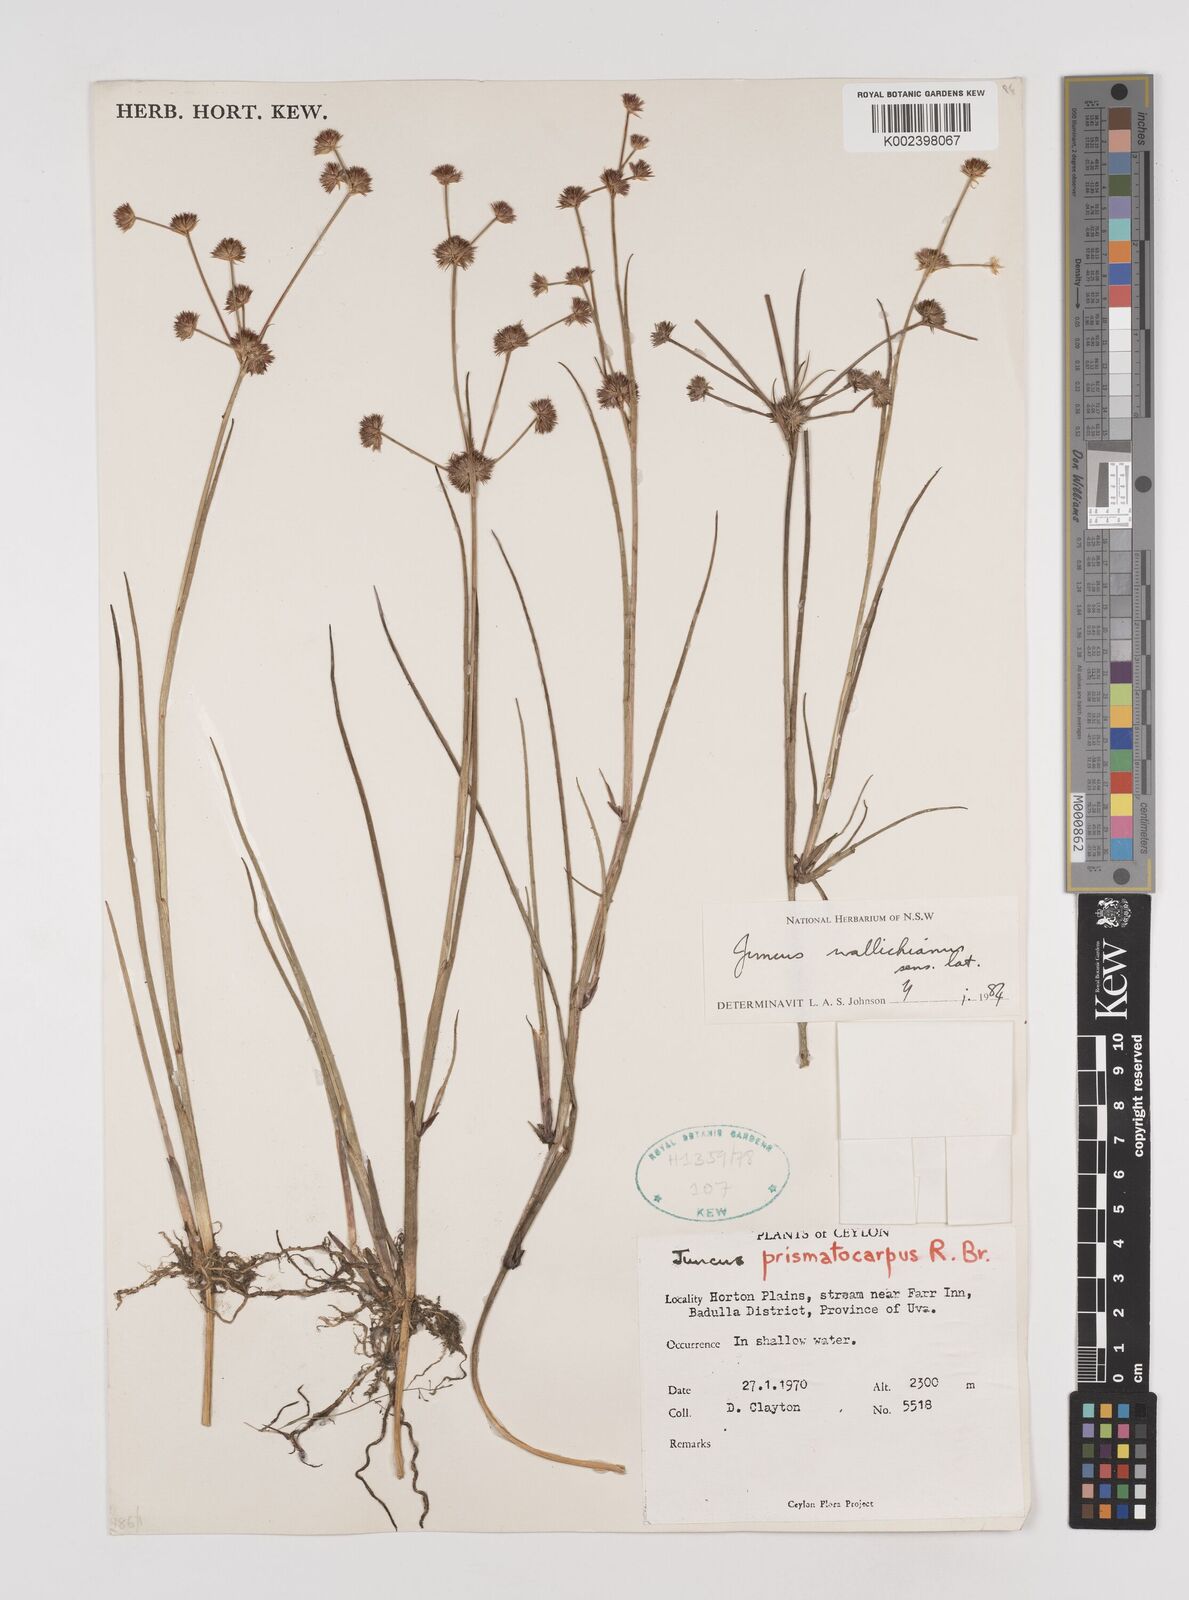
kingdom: Plantae
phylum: Tracheophyta
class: Liliopsida
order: Poales
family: Juncaceae
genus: Juncus
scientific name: Juncus wallichianus
